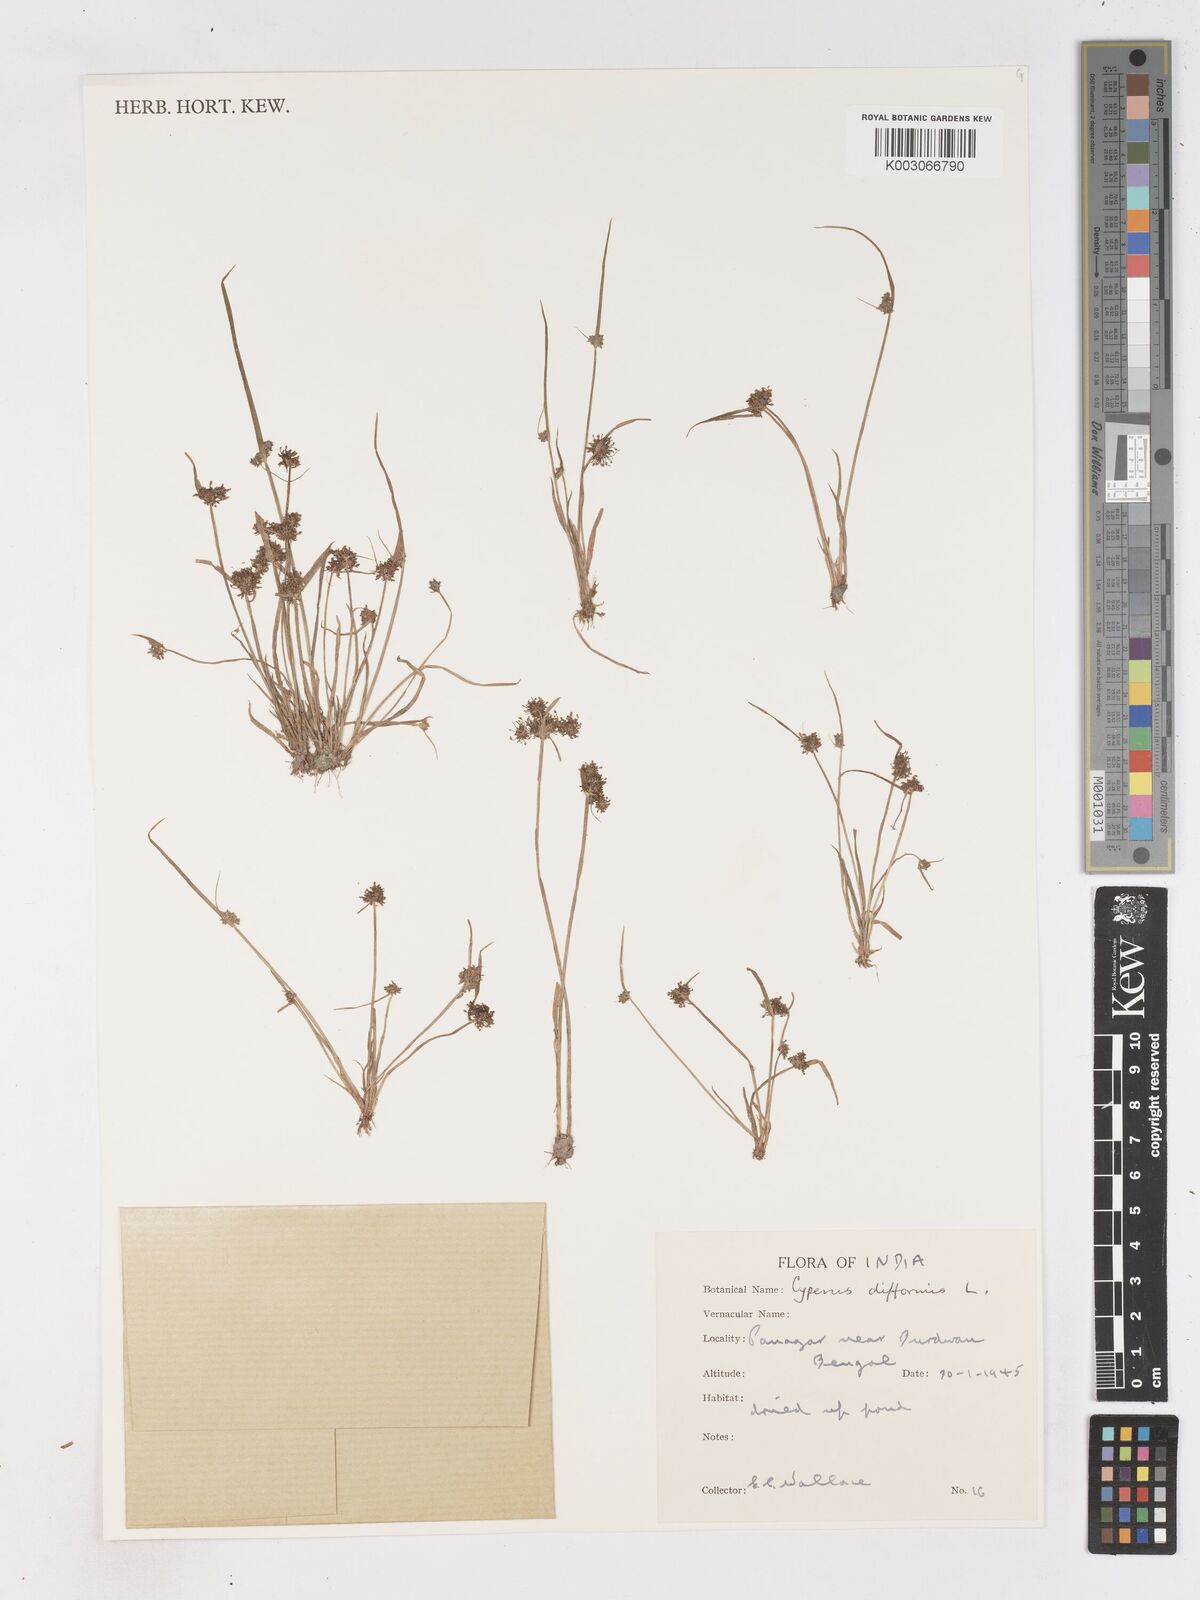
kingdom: Plantae
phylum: Tracheophyta
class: Liliopsida
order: Poales
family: Cyperaceae
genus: Cyperus
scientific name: Cyperus difformis
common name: Variable flatsedge
